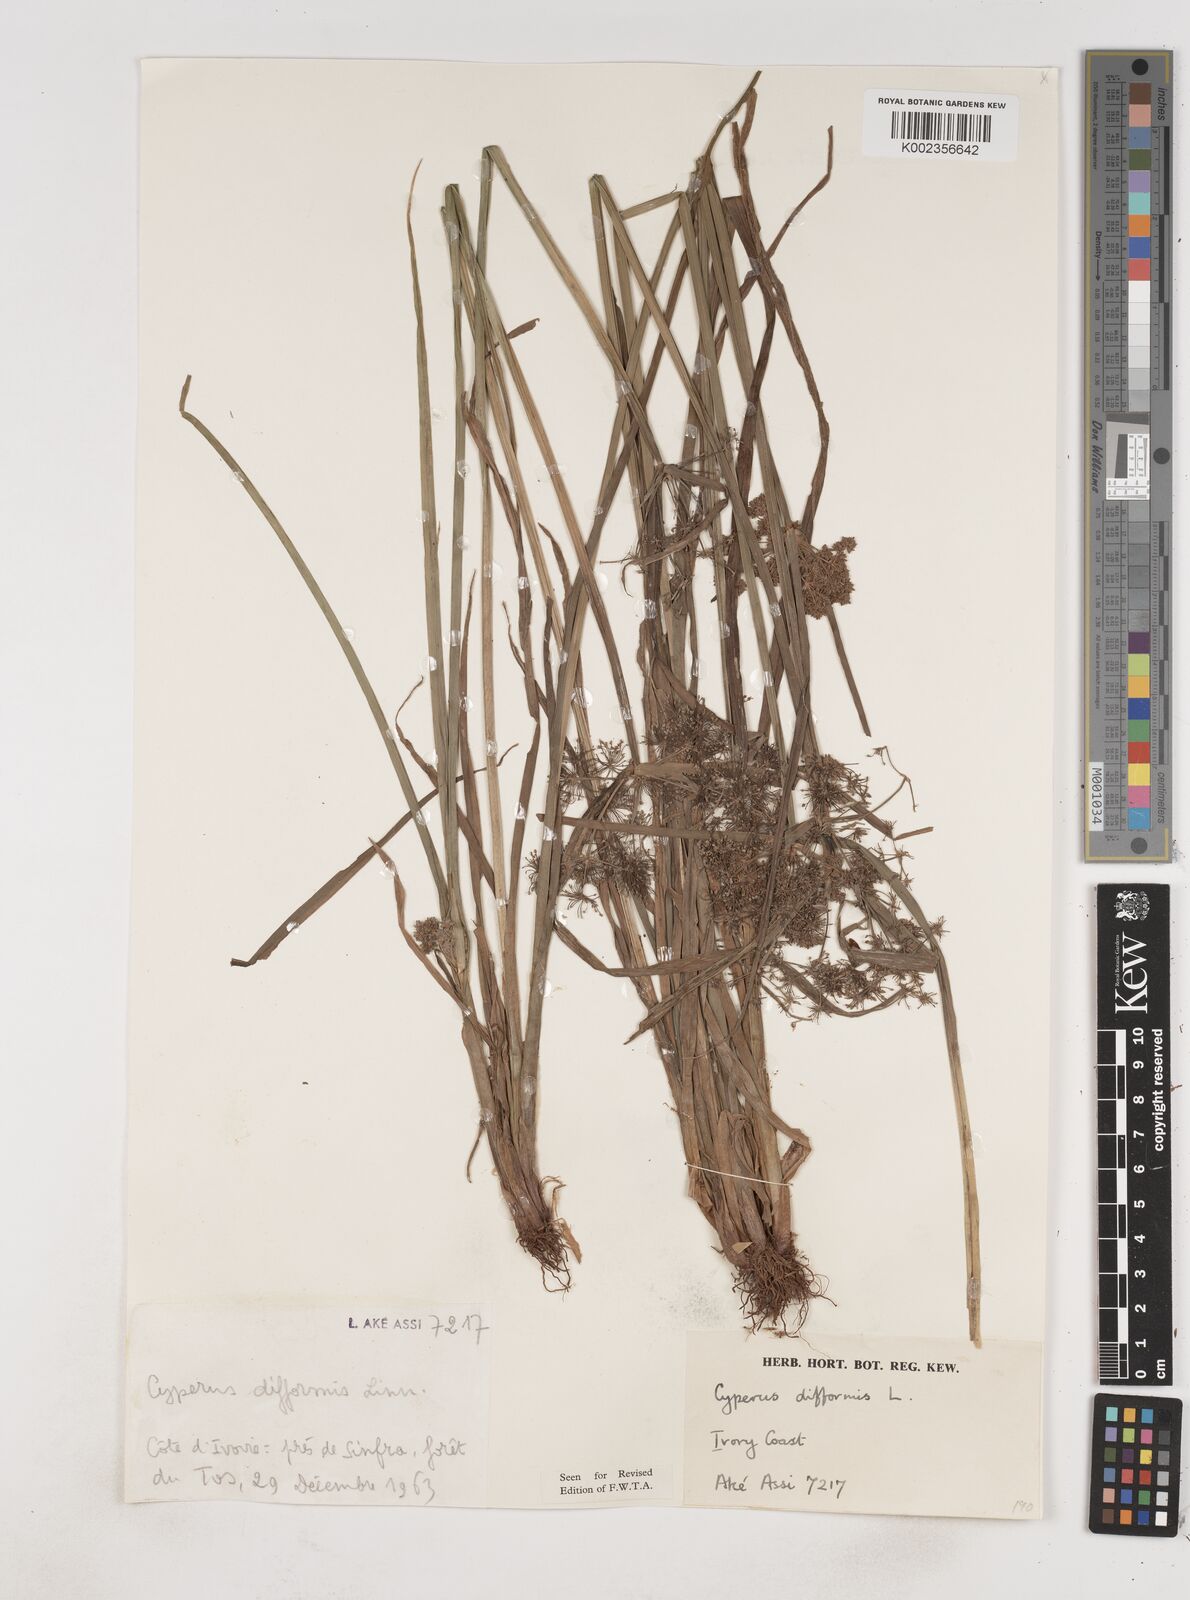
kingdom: Plantae
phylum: Tracheophyta
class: Liliopsida
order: Poales
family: Cyperaceae
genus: Cyperus
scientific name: Cyperus difformis
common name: Variable flatsedge
